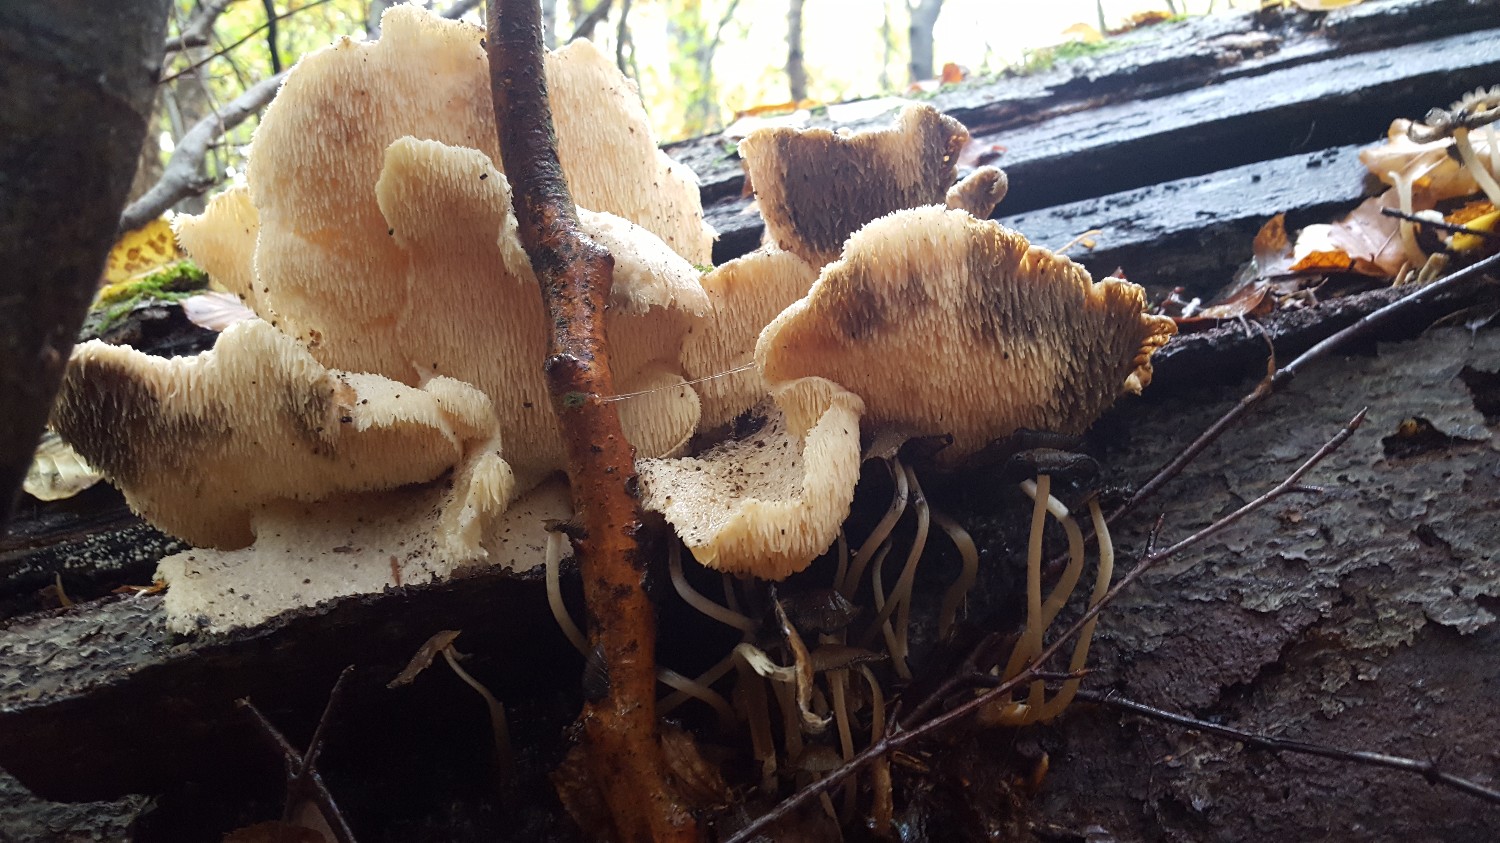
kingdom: Fungi
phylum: Basidiomycota
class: Agaricomycetes
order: Russulales
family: Hericiaceae
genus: Hericium
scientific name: Hericium cirrhatum
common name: børstepigsvamp
